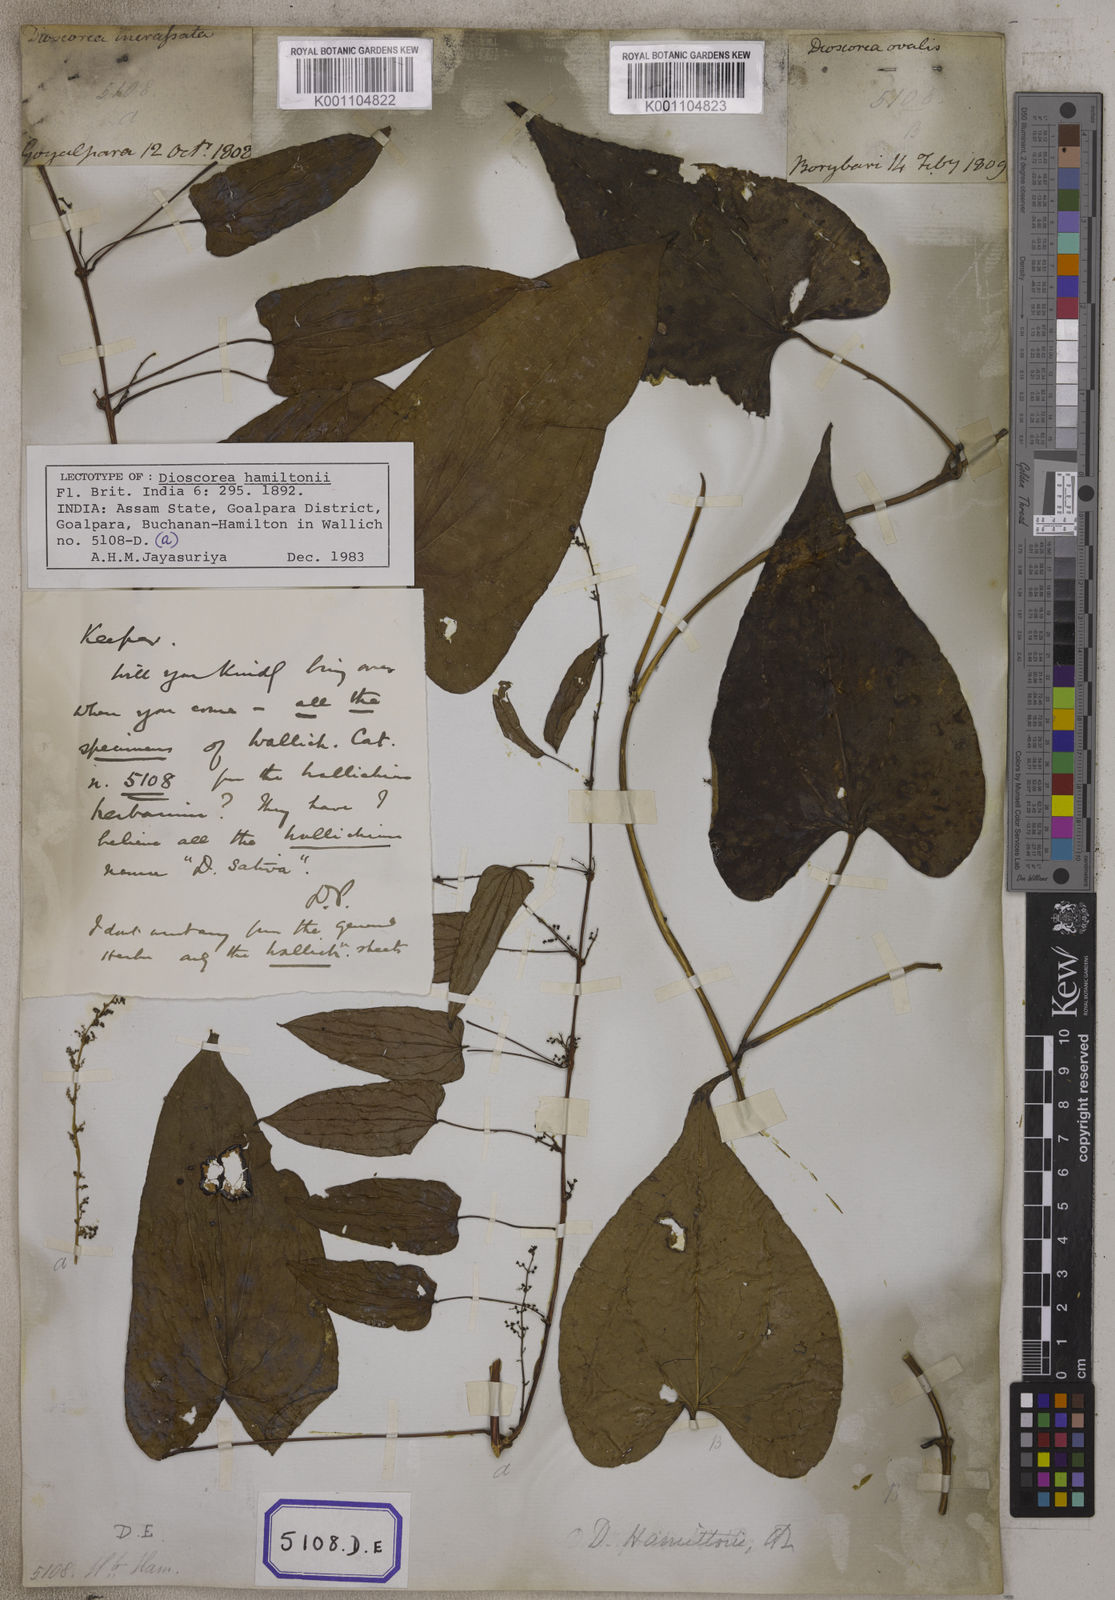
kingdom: Plantae
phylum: Tracheophyta
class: Liliopsida
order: Dioscoreales
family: Dioscoreaceae
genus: Dioscorea
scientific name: Dioscorea villosa
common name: Wild yam
